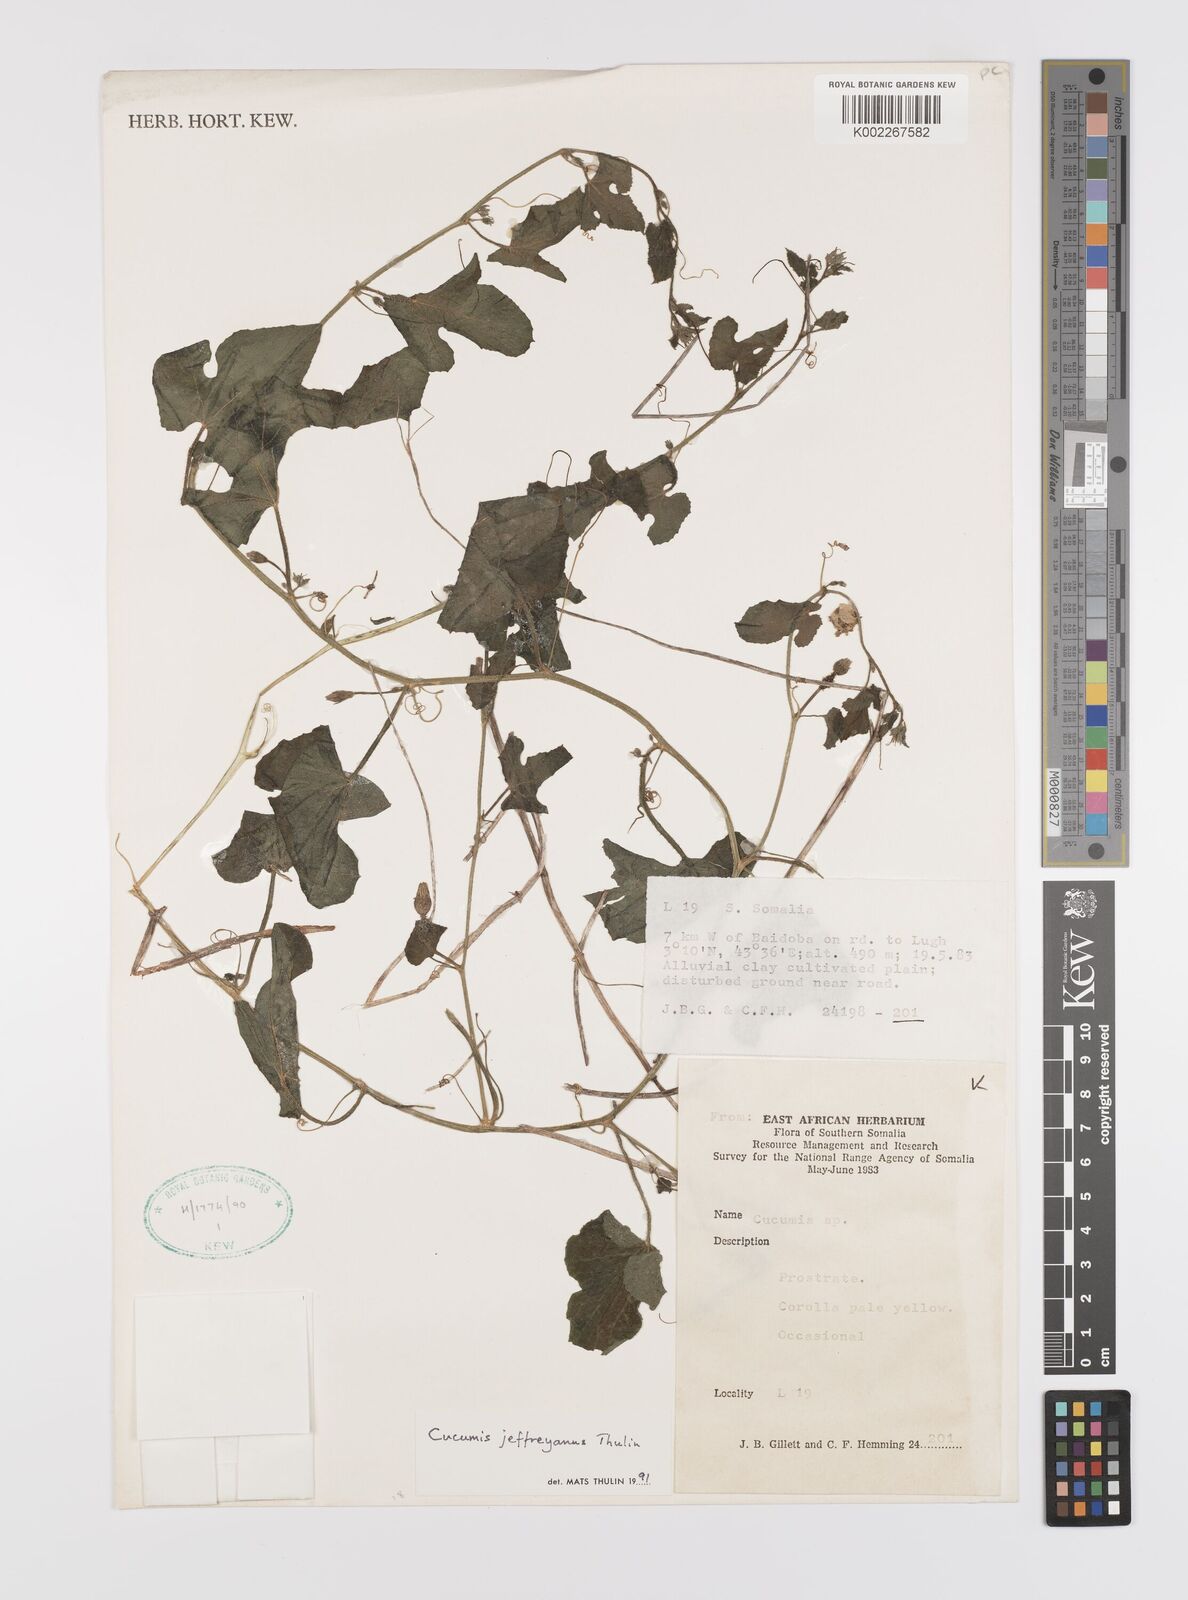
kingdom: Plantae
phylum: Tracheophyta
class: Magnoliopsida
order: Cucurbitales
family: Cucurbitaceae
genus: Cucumis
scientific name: Cucumis jeffreyanus
